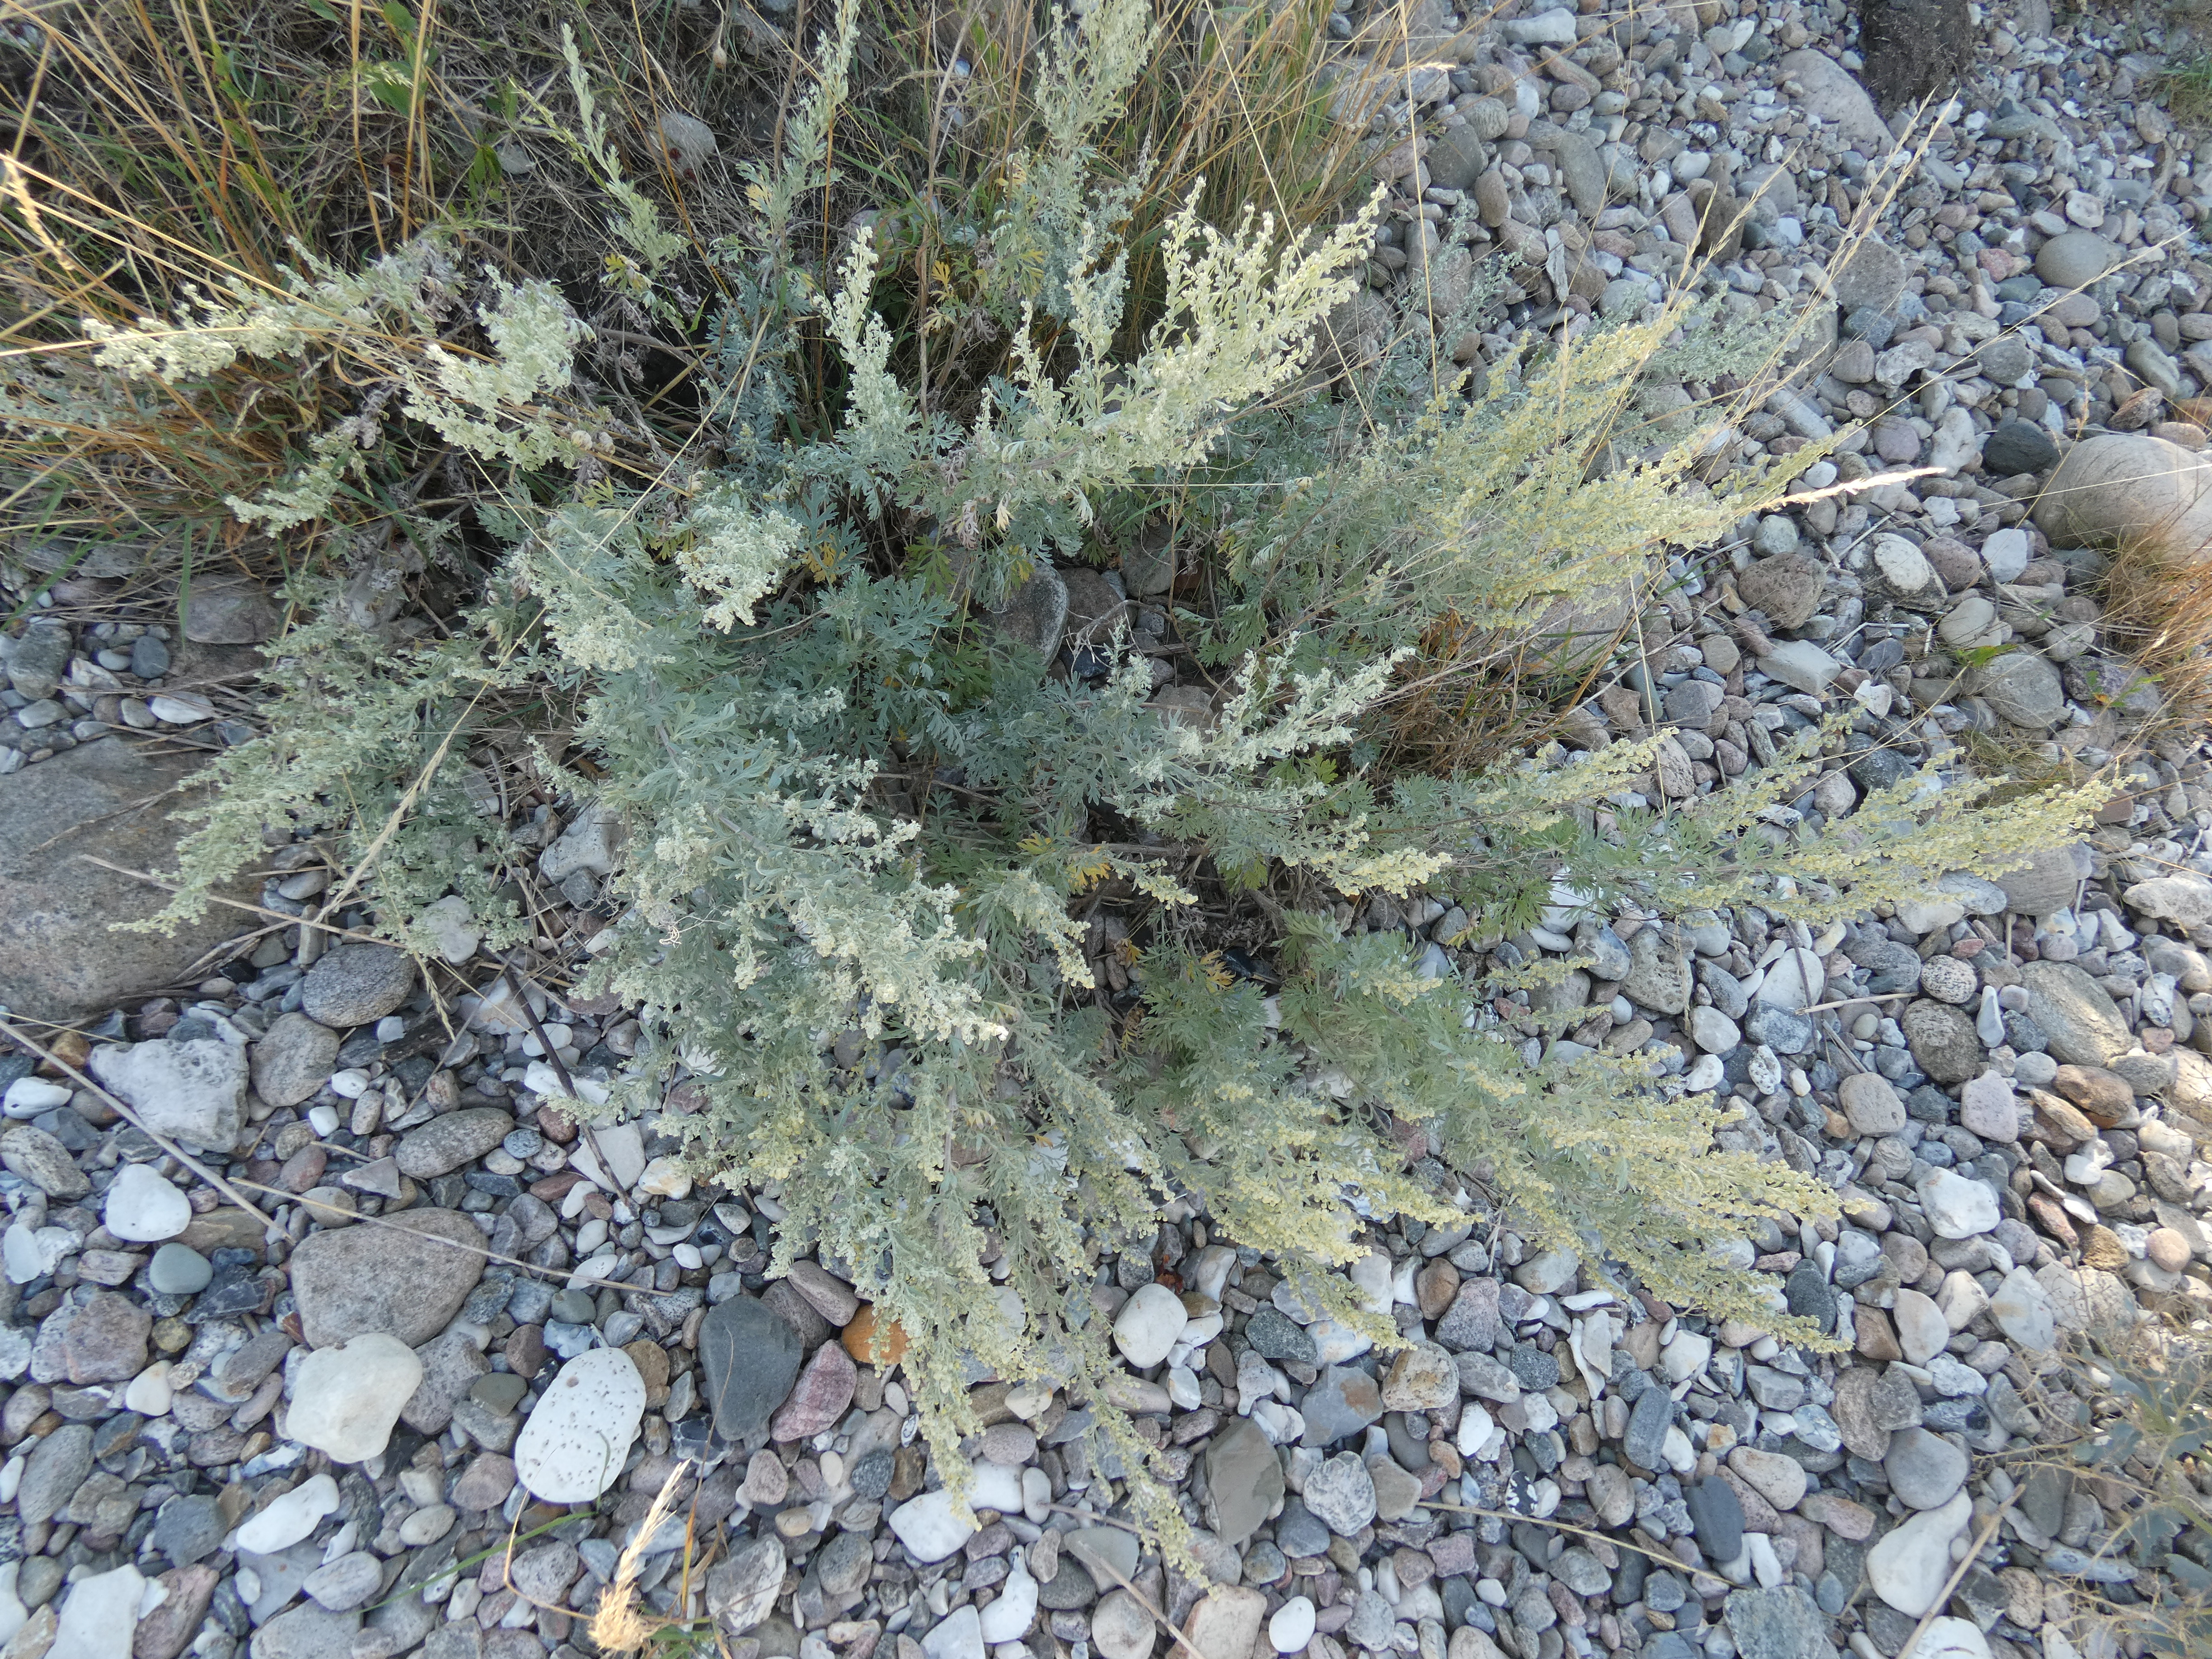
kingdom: Plantae
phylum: Tracheophyta
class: Magnoliopsida
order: Asterales
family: Asteraceae
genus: Artemisia
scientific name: Artemisia maritima
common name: Strandmalurt
